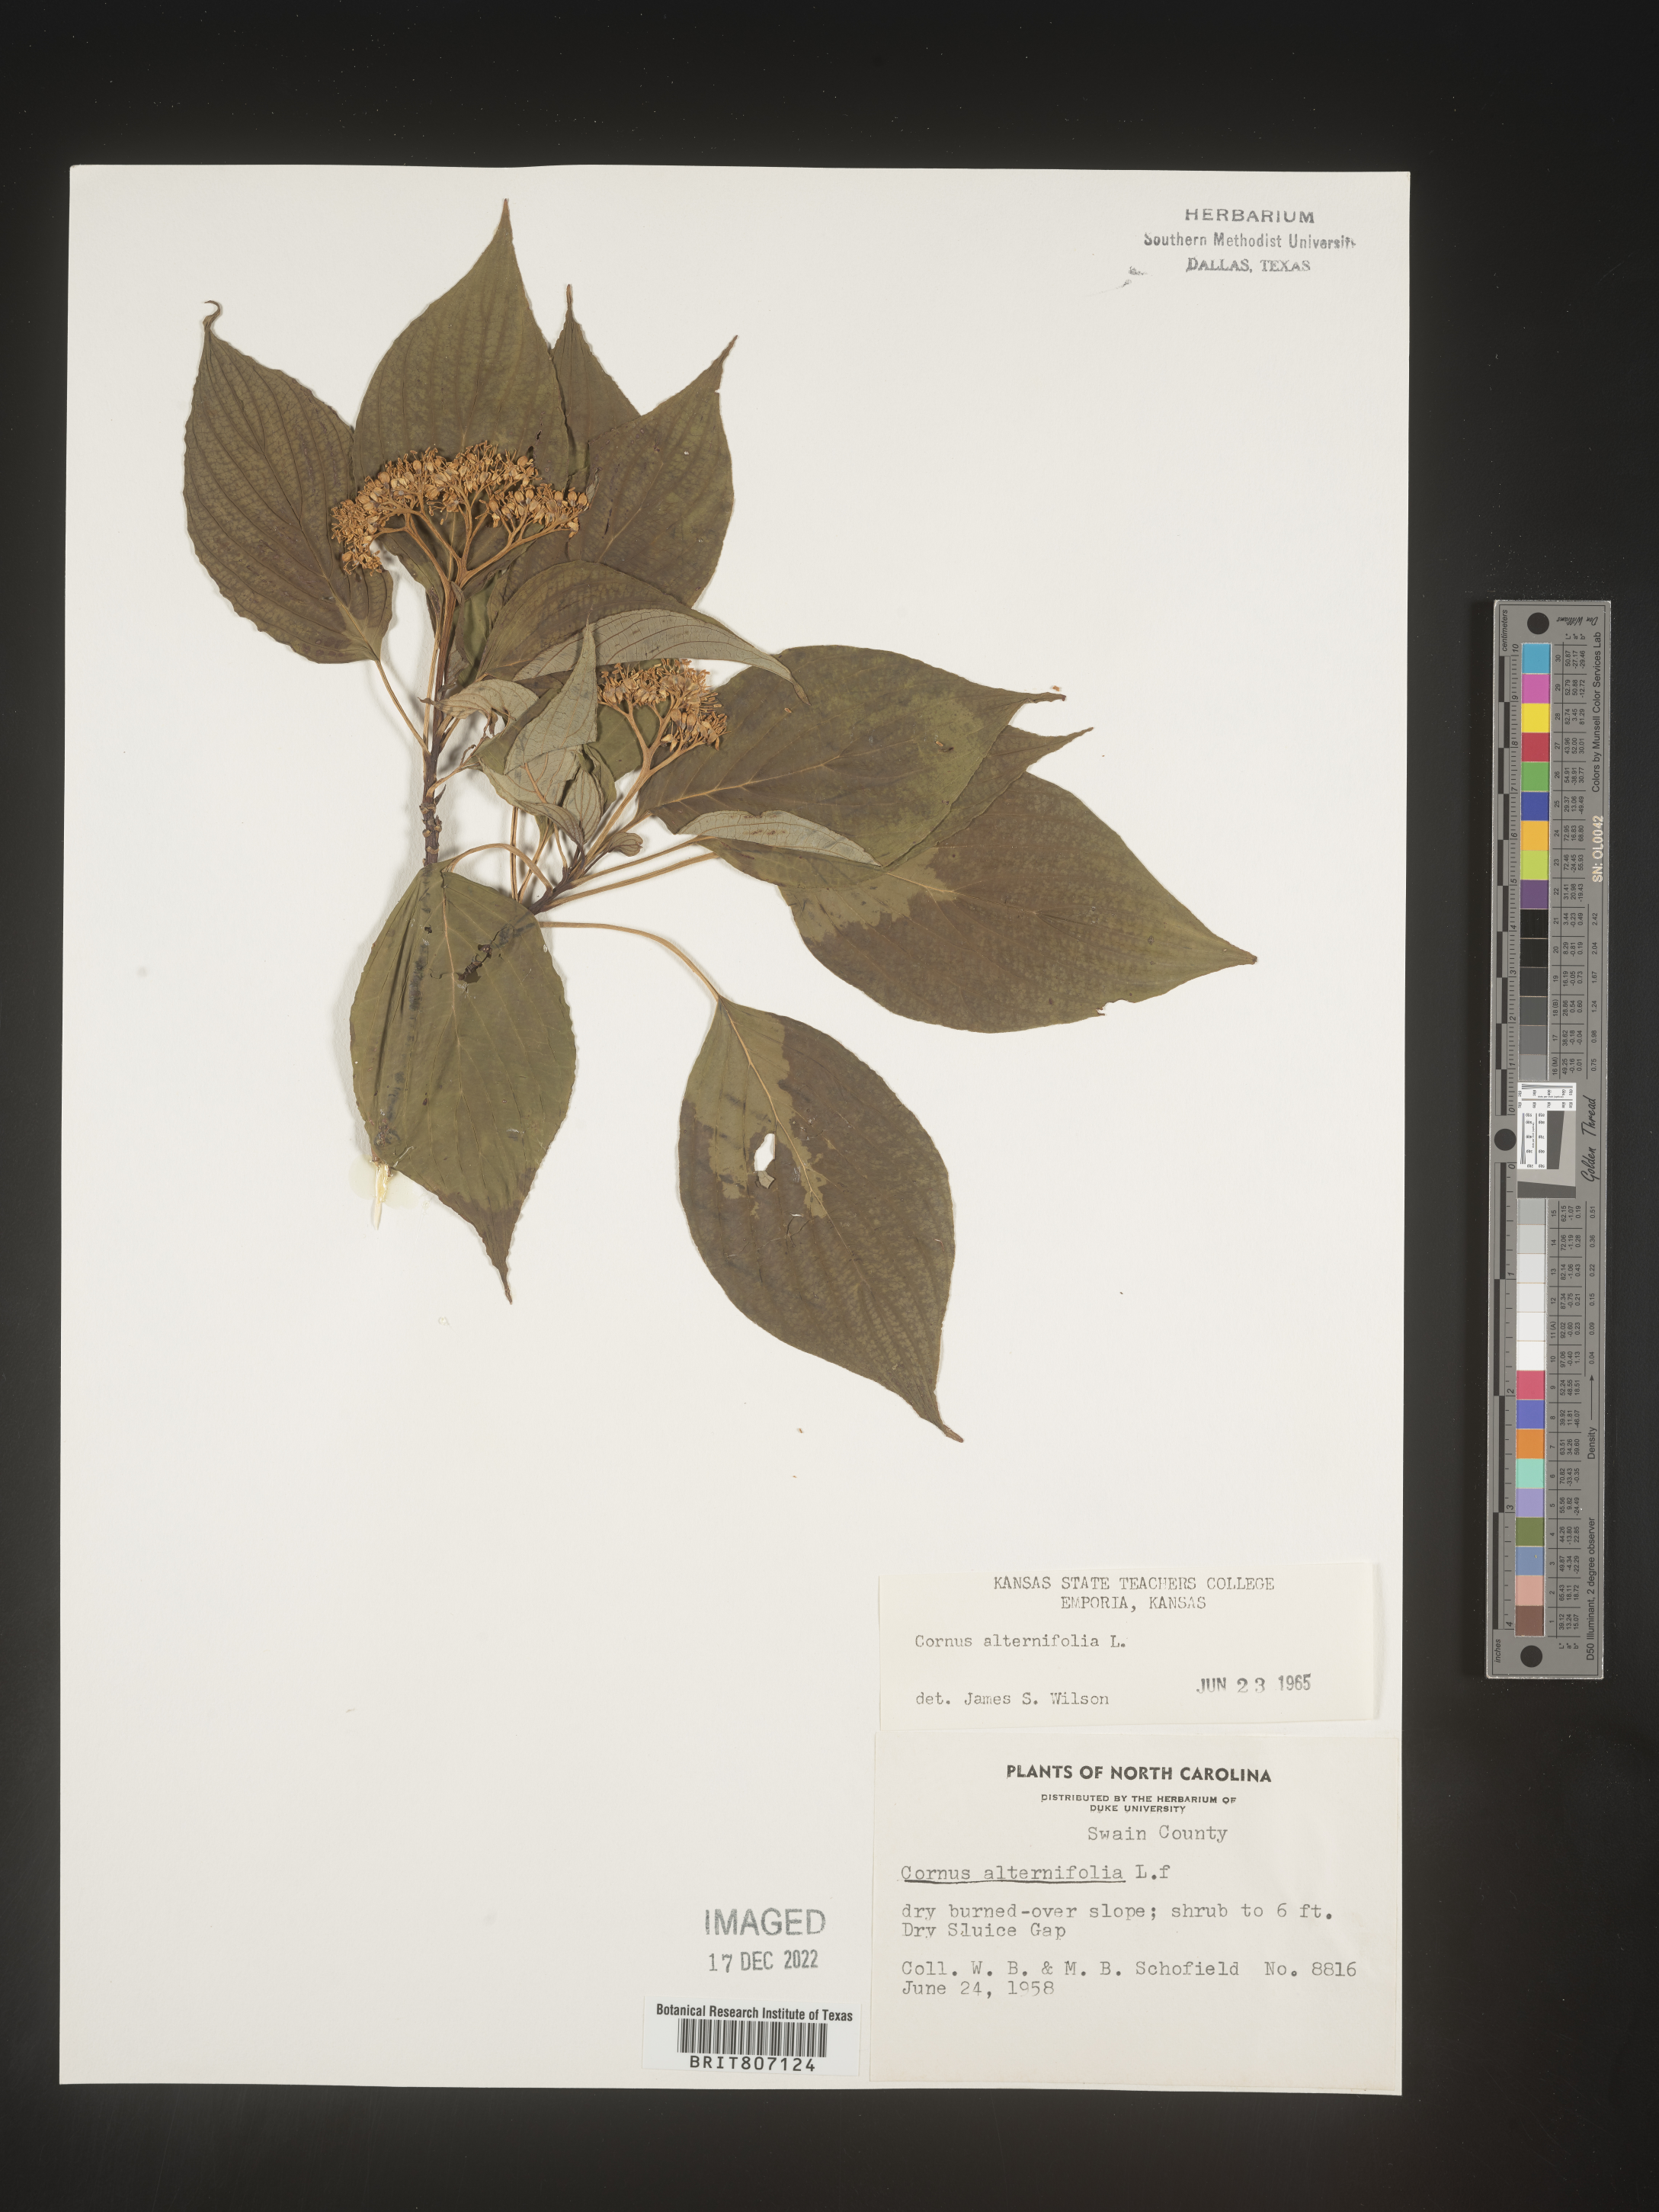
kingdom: Plantae
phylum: Tracheophyta
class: Magnoliopsida
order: Cornales
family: Cornaceae
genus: Cornus
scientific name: Cornus alternifolia
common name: Pagoda dogwood
